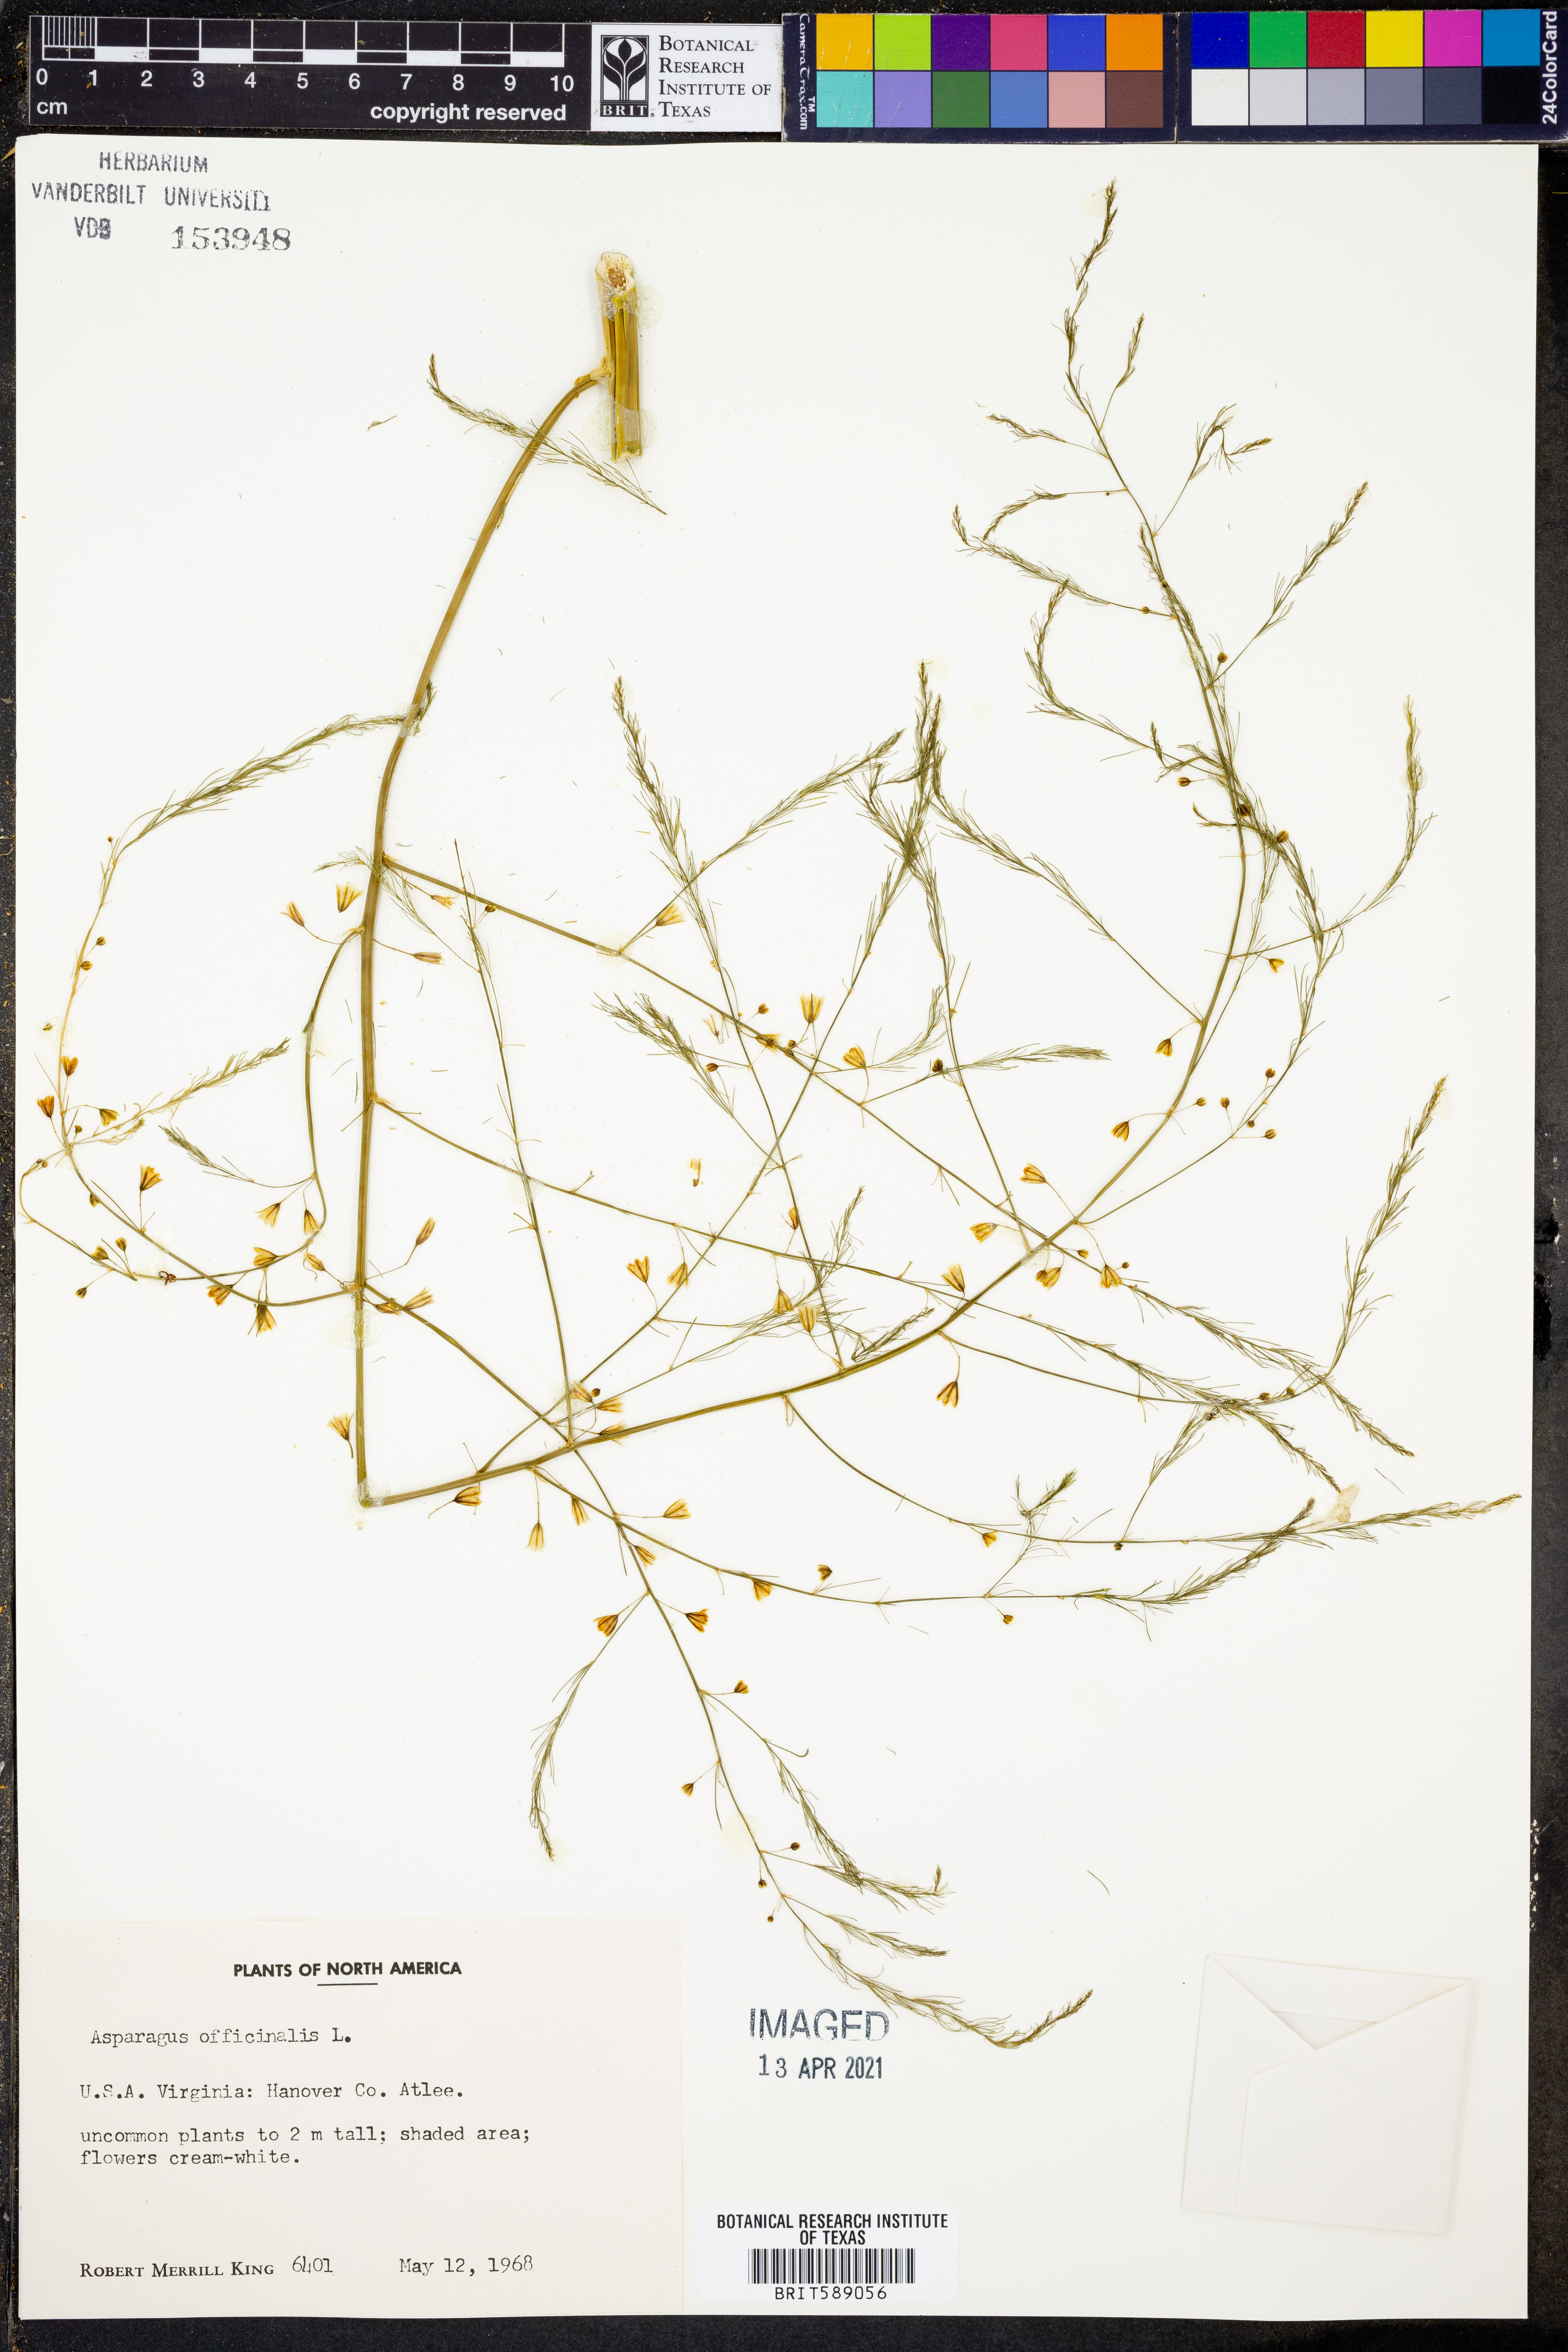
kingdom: Plantae
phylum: Tracheophyta
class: Liliopsida
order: Asparagales
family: Asparagaceae
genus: Asparagus
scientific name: Asparagus officinalis
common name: Garden asparagus
